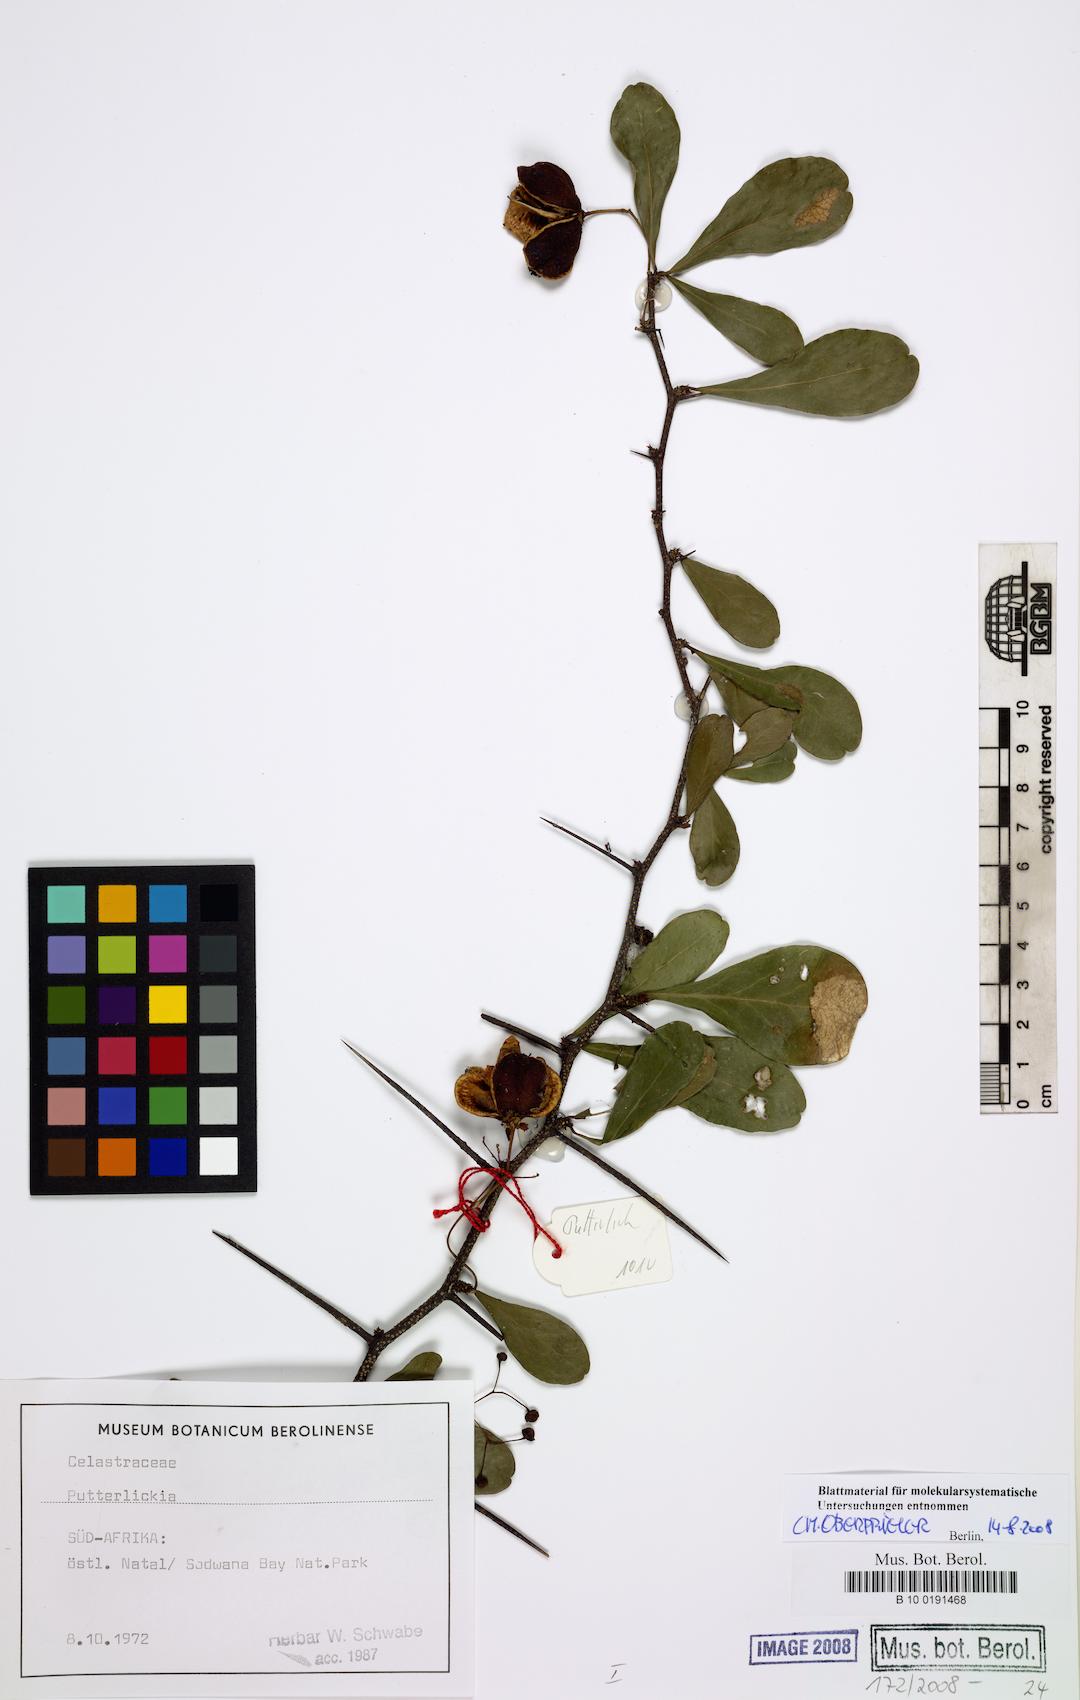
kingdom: Plantae
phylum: Tracheophyta
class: Magnoliopsida
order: Celastrales
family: Celastraceae
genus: Putterlickia
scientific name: Putterlickia
